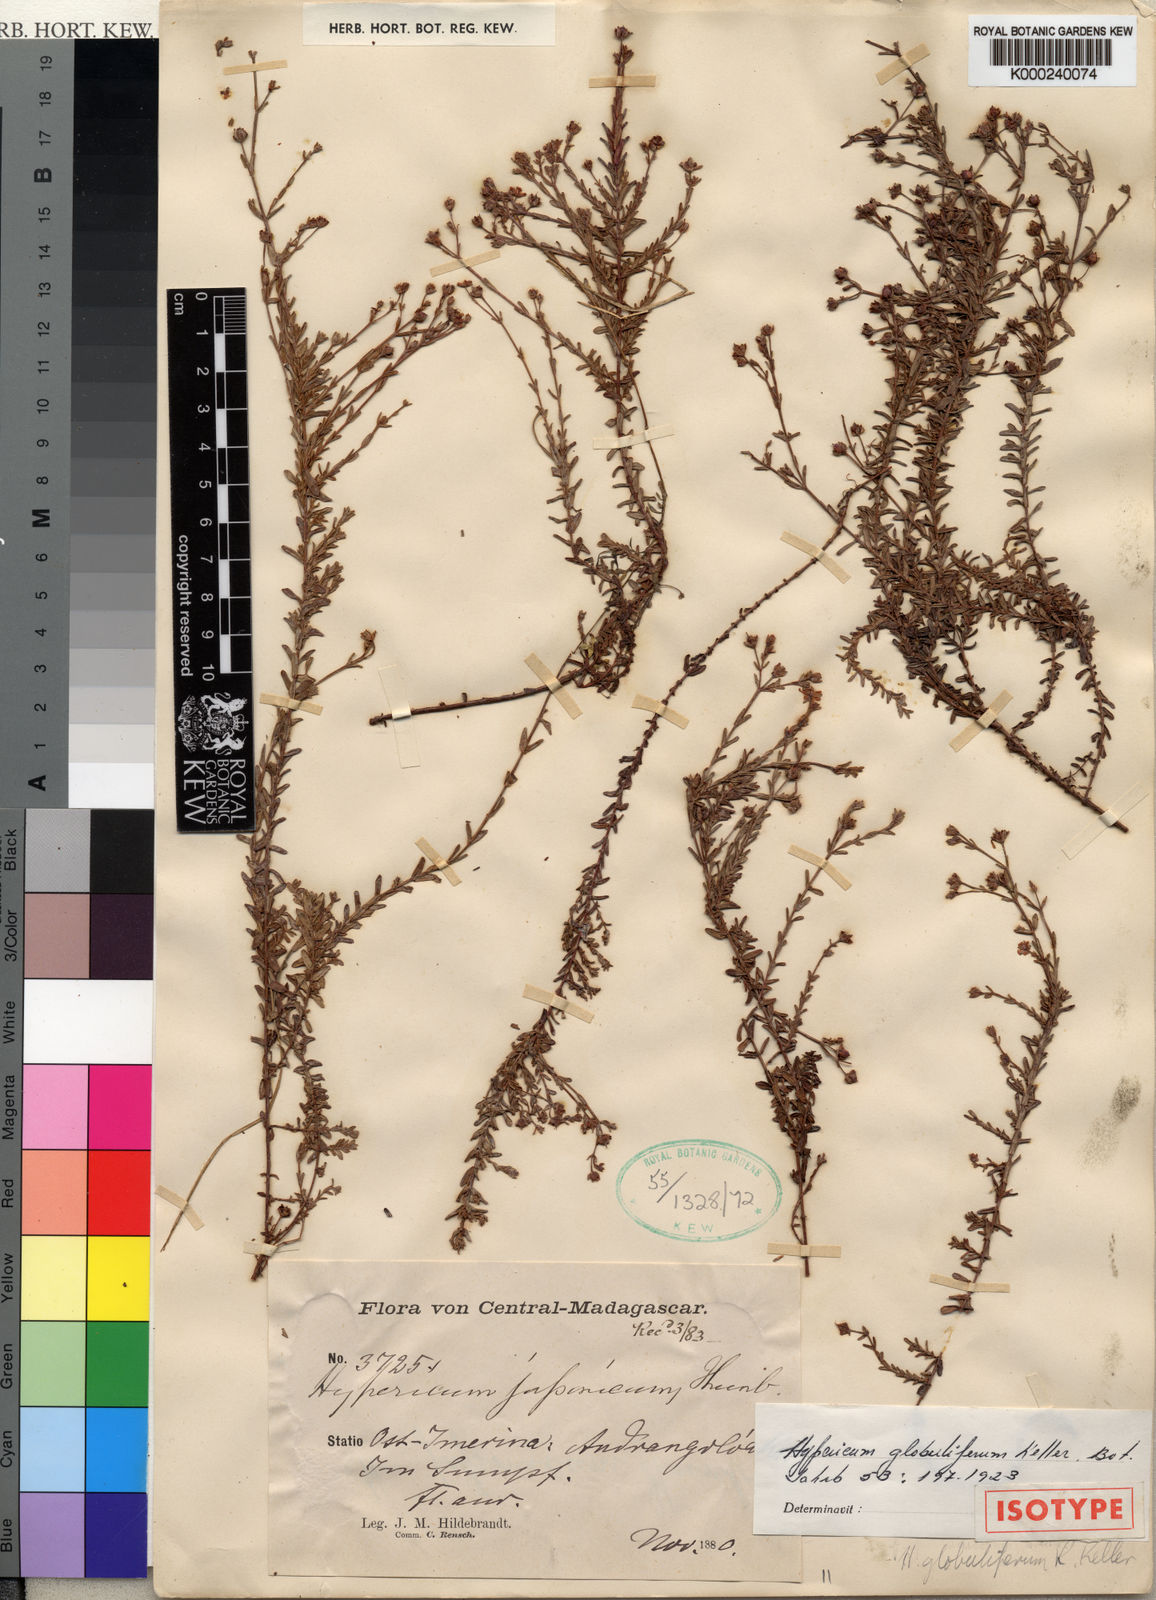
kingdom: Plantae
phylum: Tracheophyta
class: Magnoliopsida
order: Malpighiales
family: Hypericaceae
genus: Hypericum
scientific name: Hypericum globuliferum
